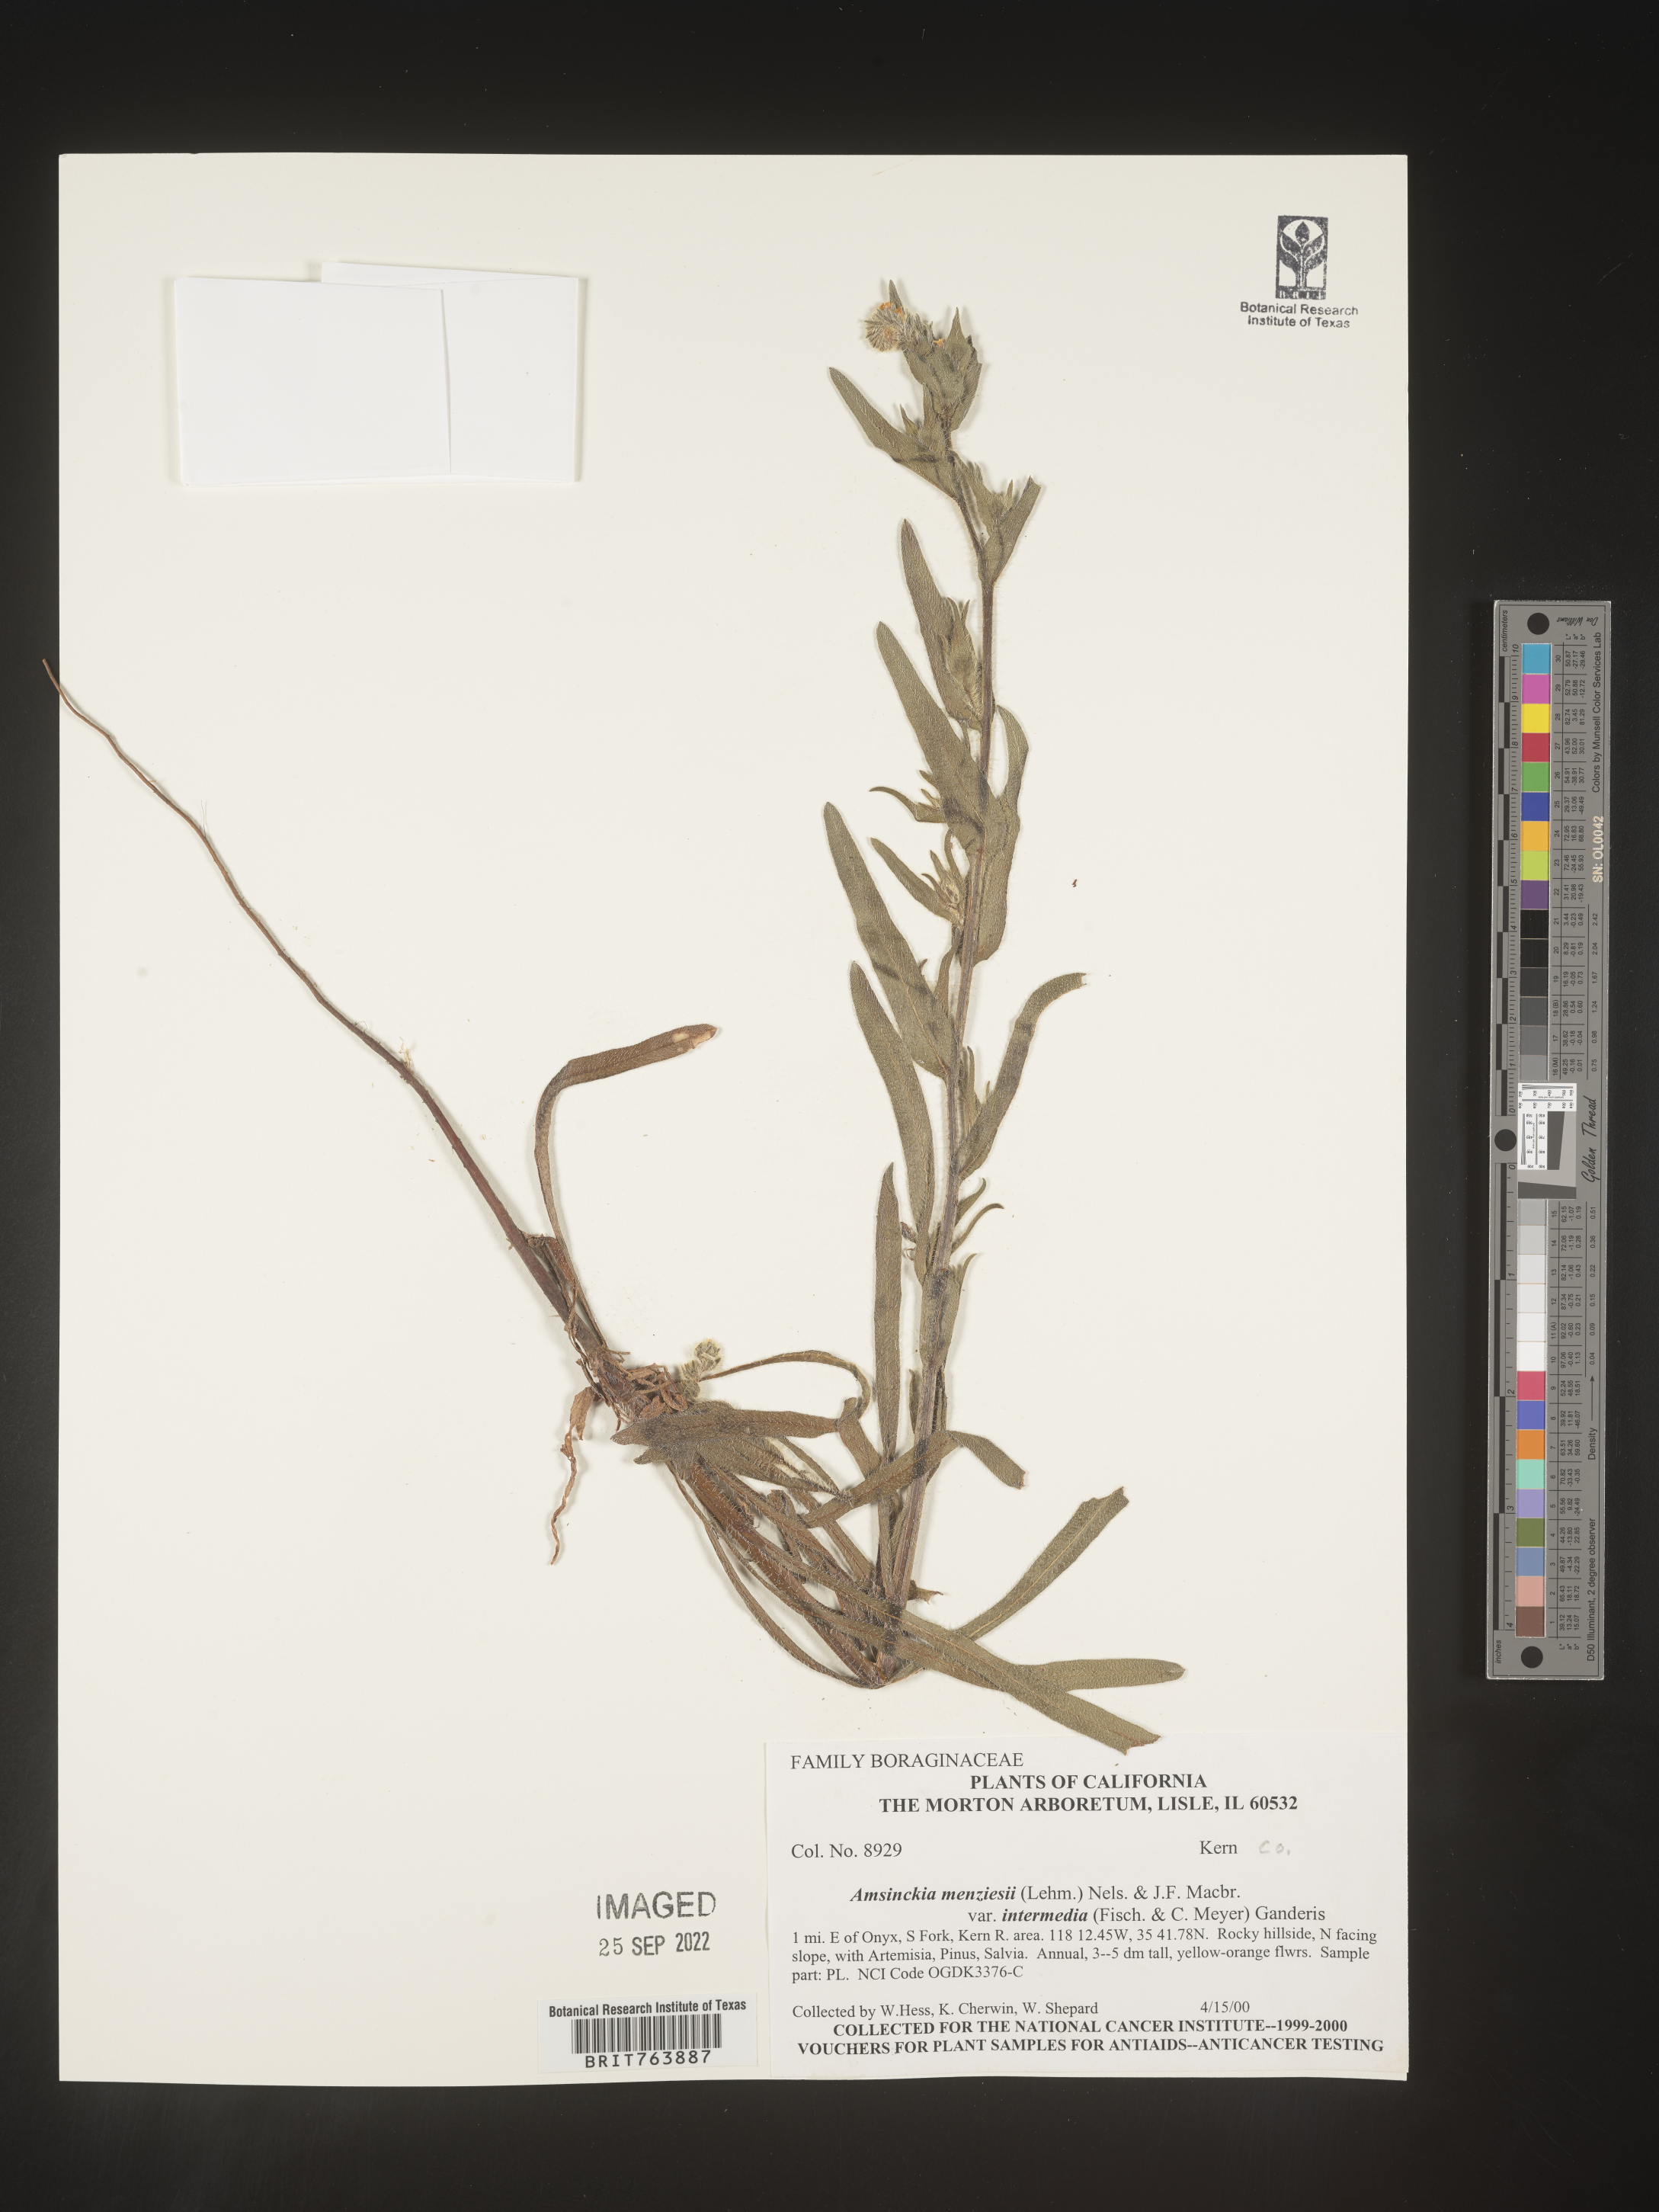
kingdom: Plantae
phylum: Tracheophyta
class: Magnoliopsida
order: Boraginales
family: Boraginaceae
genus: Amsinckia
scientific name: Amsinckia menziesii
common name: Menzies' fiddleneck
